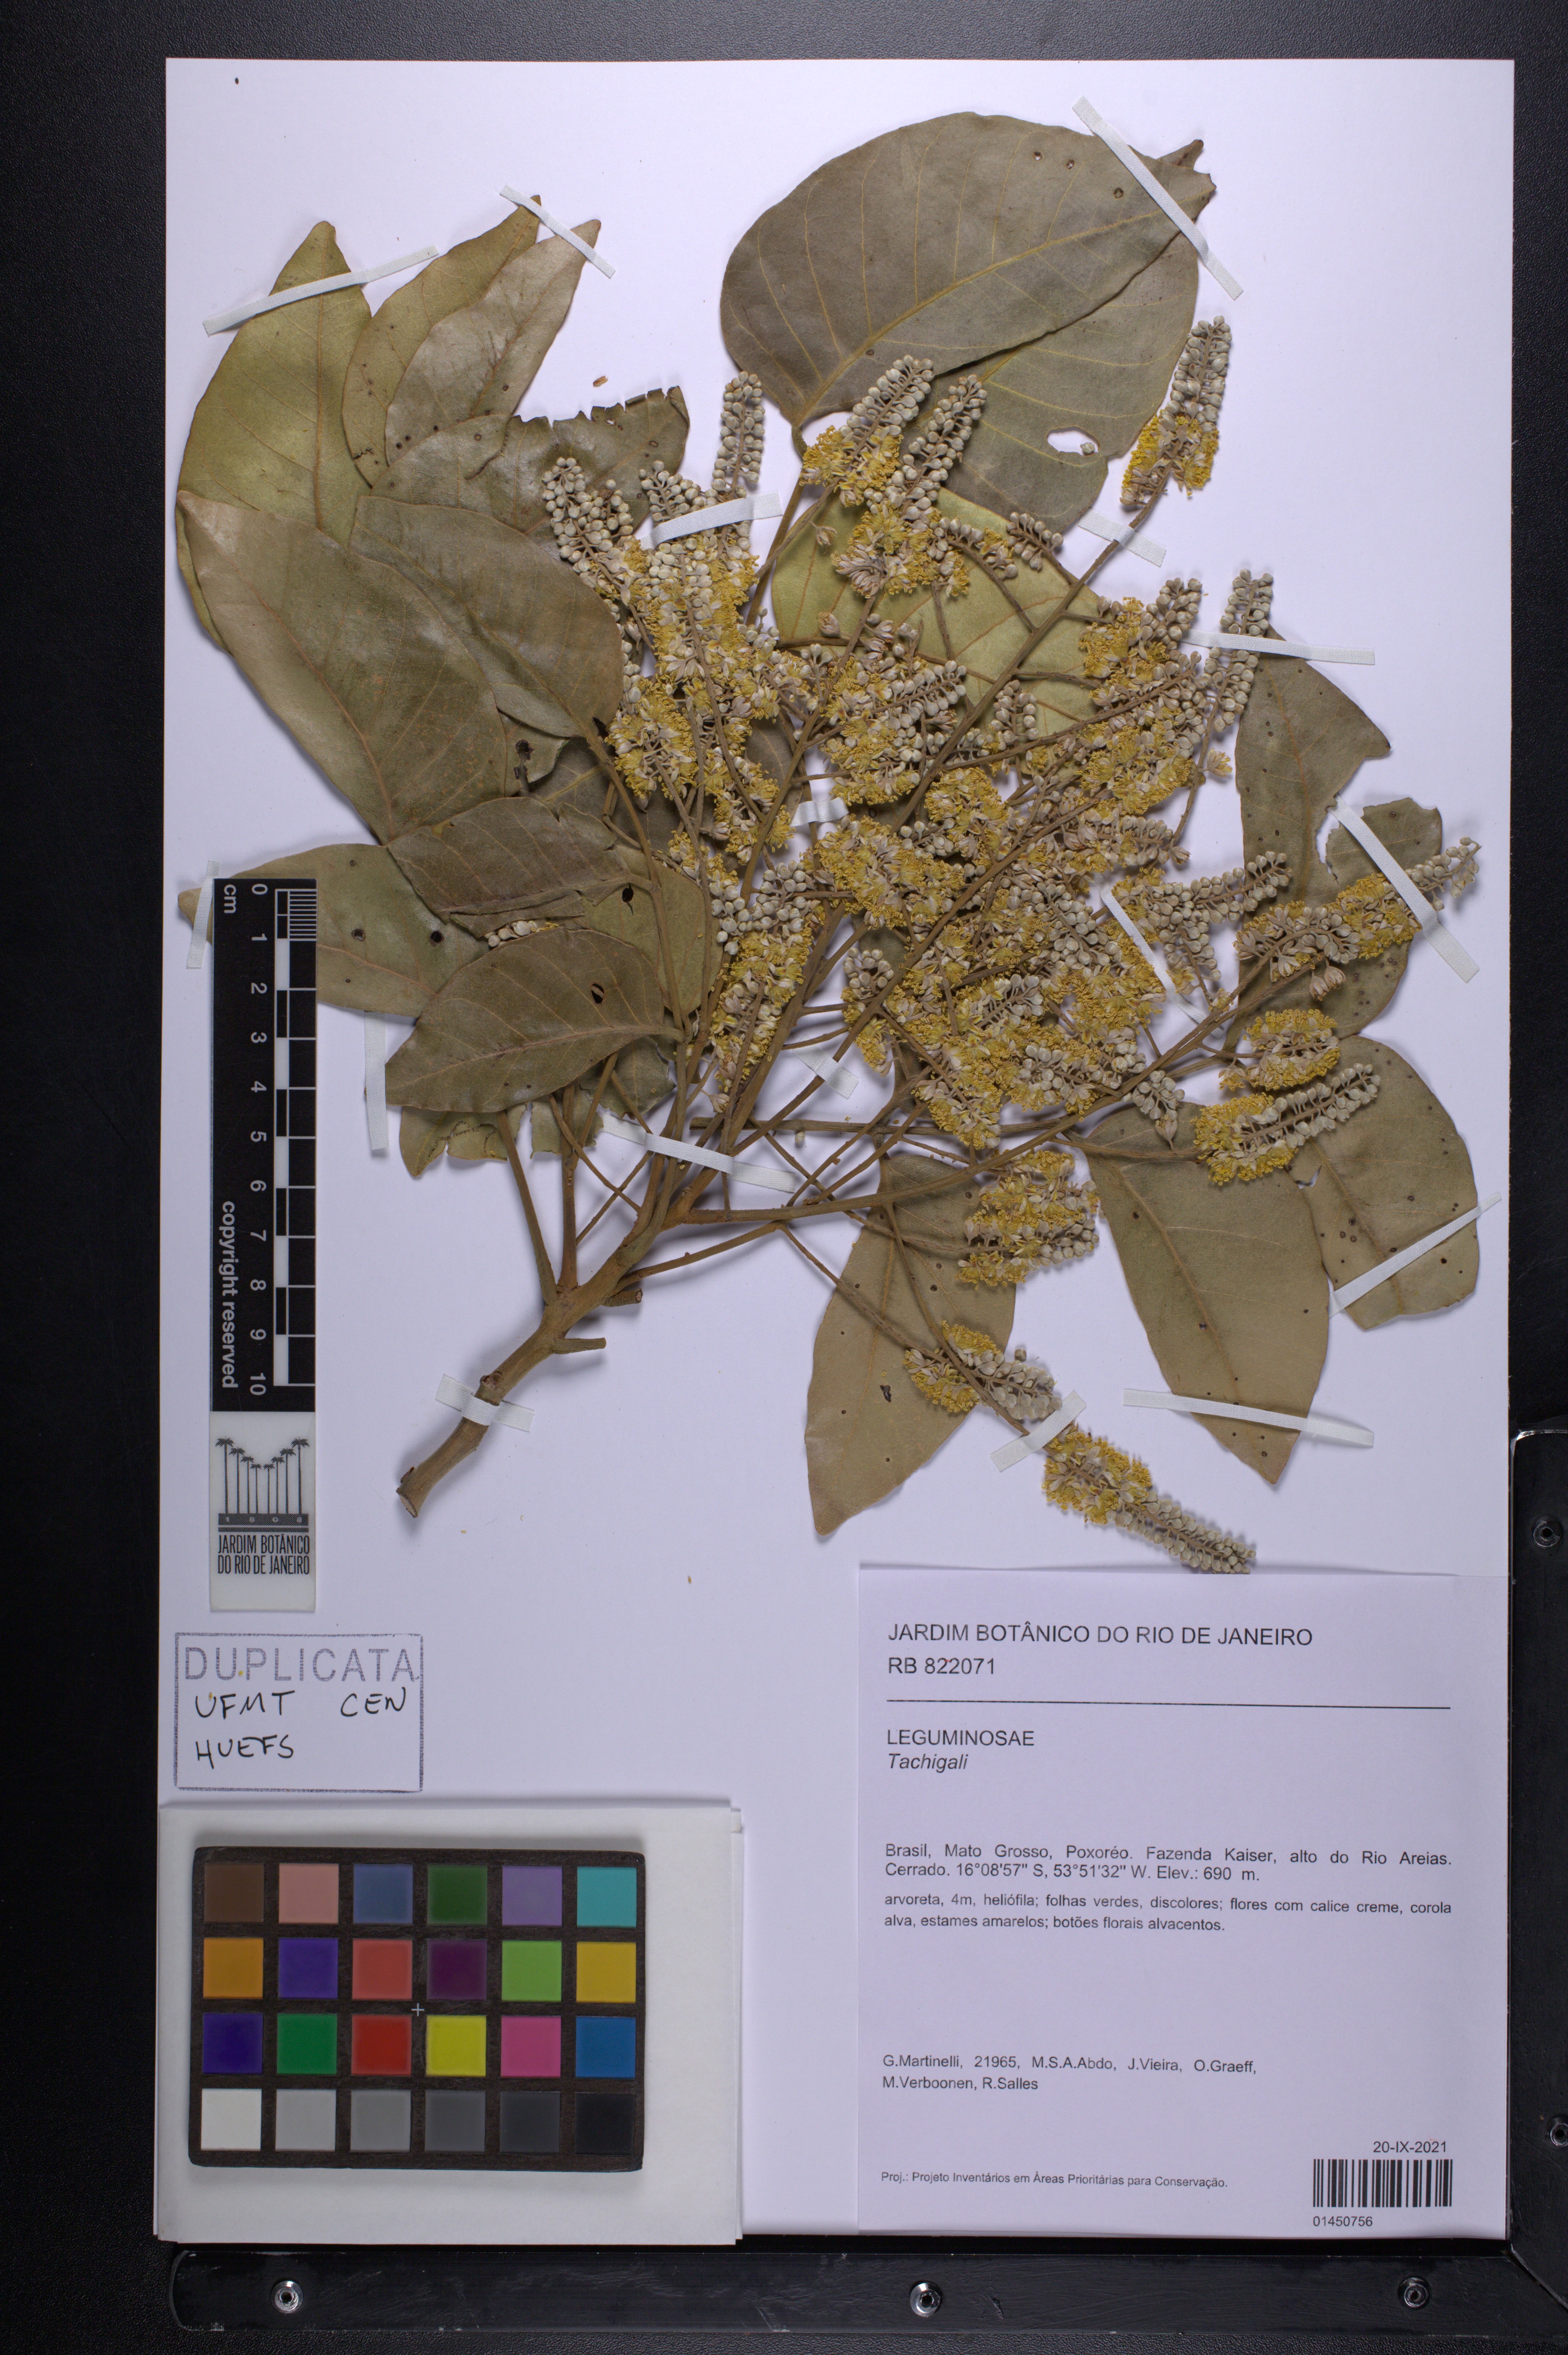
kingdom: Plantae
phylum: Tracheophyta
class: Magnoliopsida
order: Fabales
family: Fabaceae
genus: Tachigali
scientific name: Tachigali
